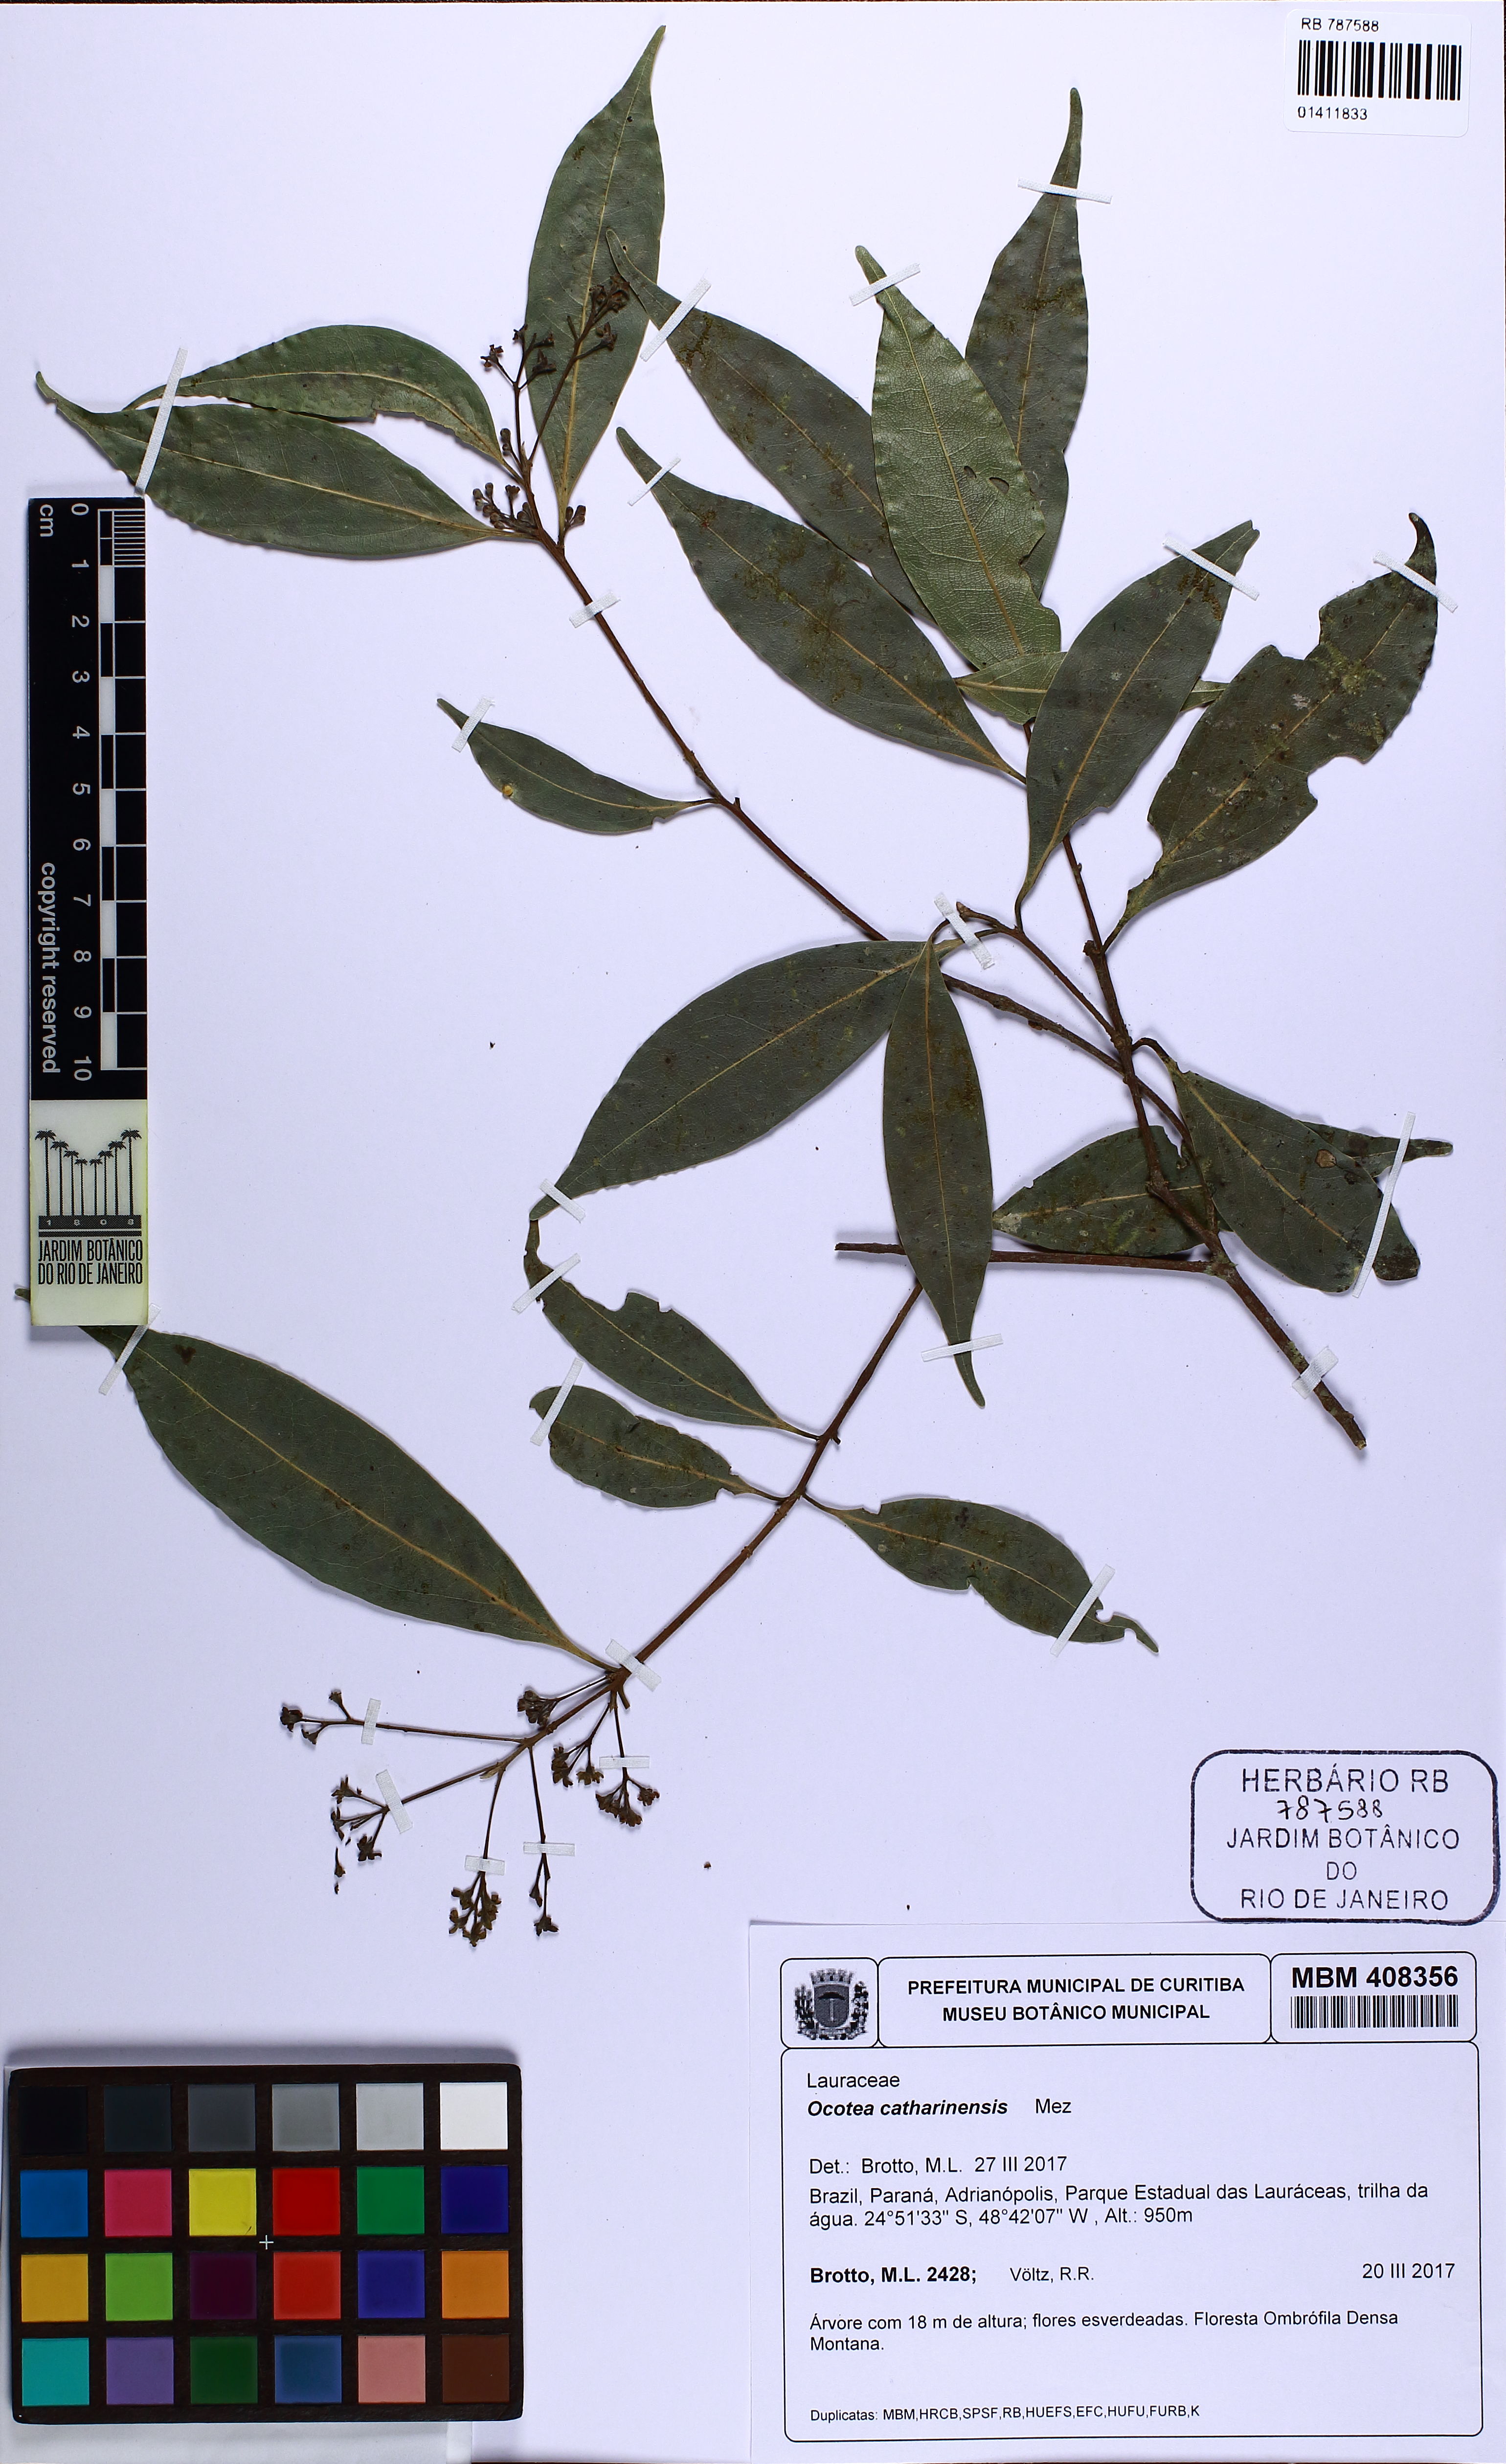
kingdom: Plantae
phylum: Tracheophyta
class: Magnoliopsida
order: Laurales
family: Lauraceae
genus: Ocotea
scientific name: Ocotea catharinensis
